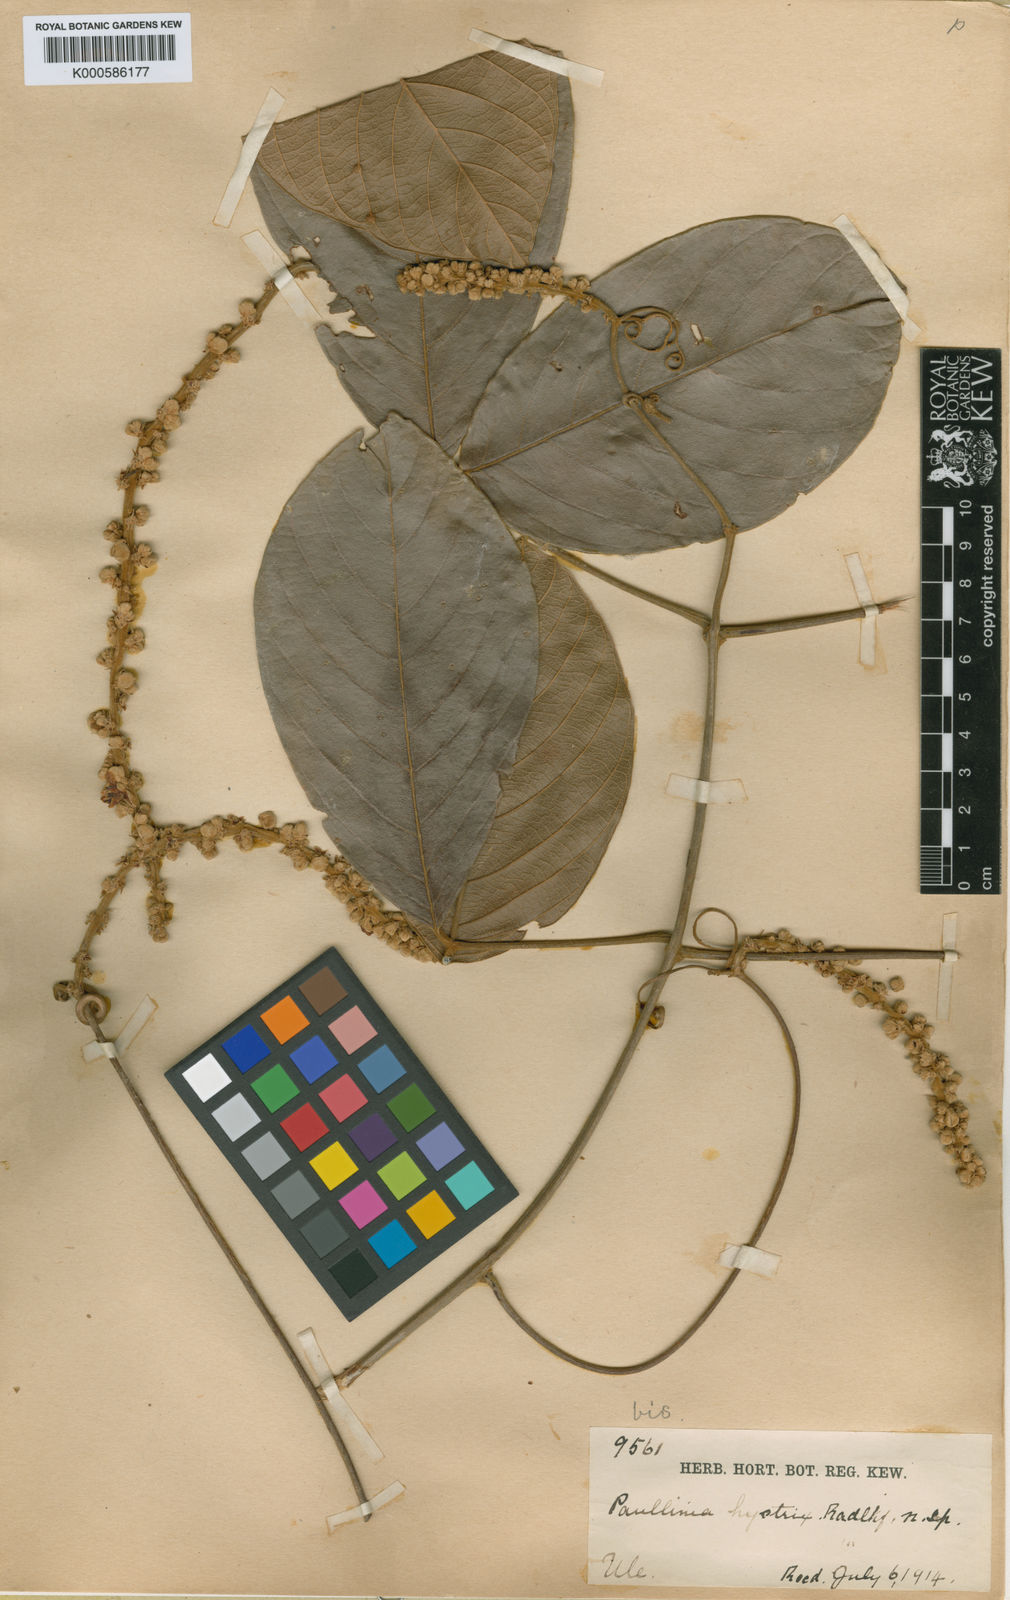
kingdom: Plantae
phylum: Tracheophyta
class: Magnoliopsida
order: Sapindales
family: Sapindaceae
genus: Paullinia
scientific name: Paullinia hystrix
